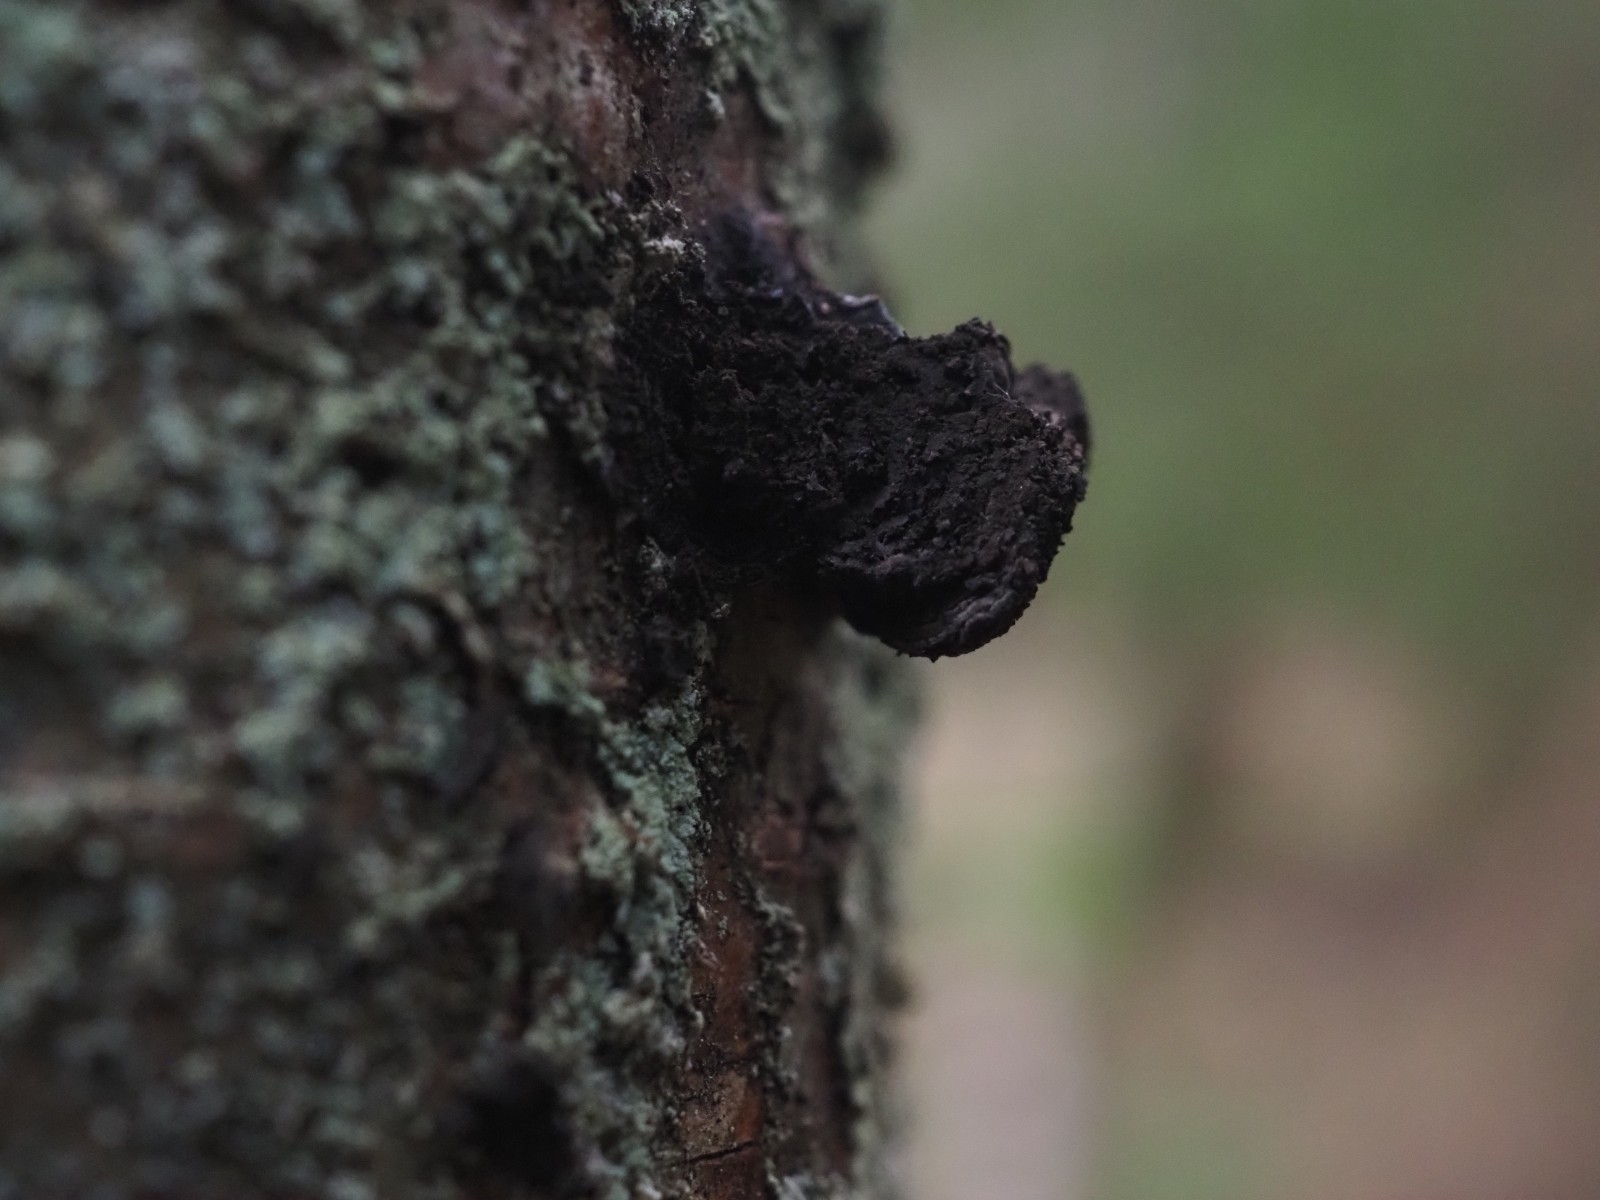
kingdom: Fungi
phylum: Ascomycota
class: Sordariomycetes
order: Xylariales
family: Hypoxylaceae
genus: Daldinia
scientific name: Daldinia decipiens
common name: stilket bæltekugle
